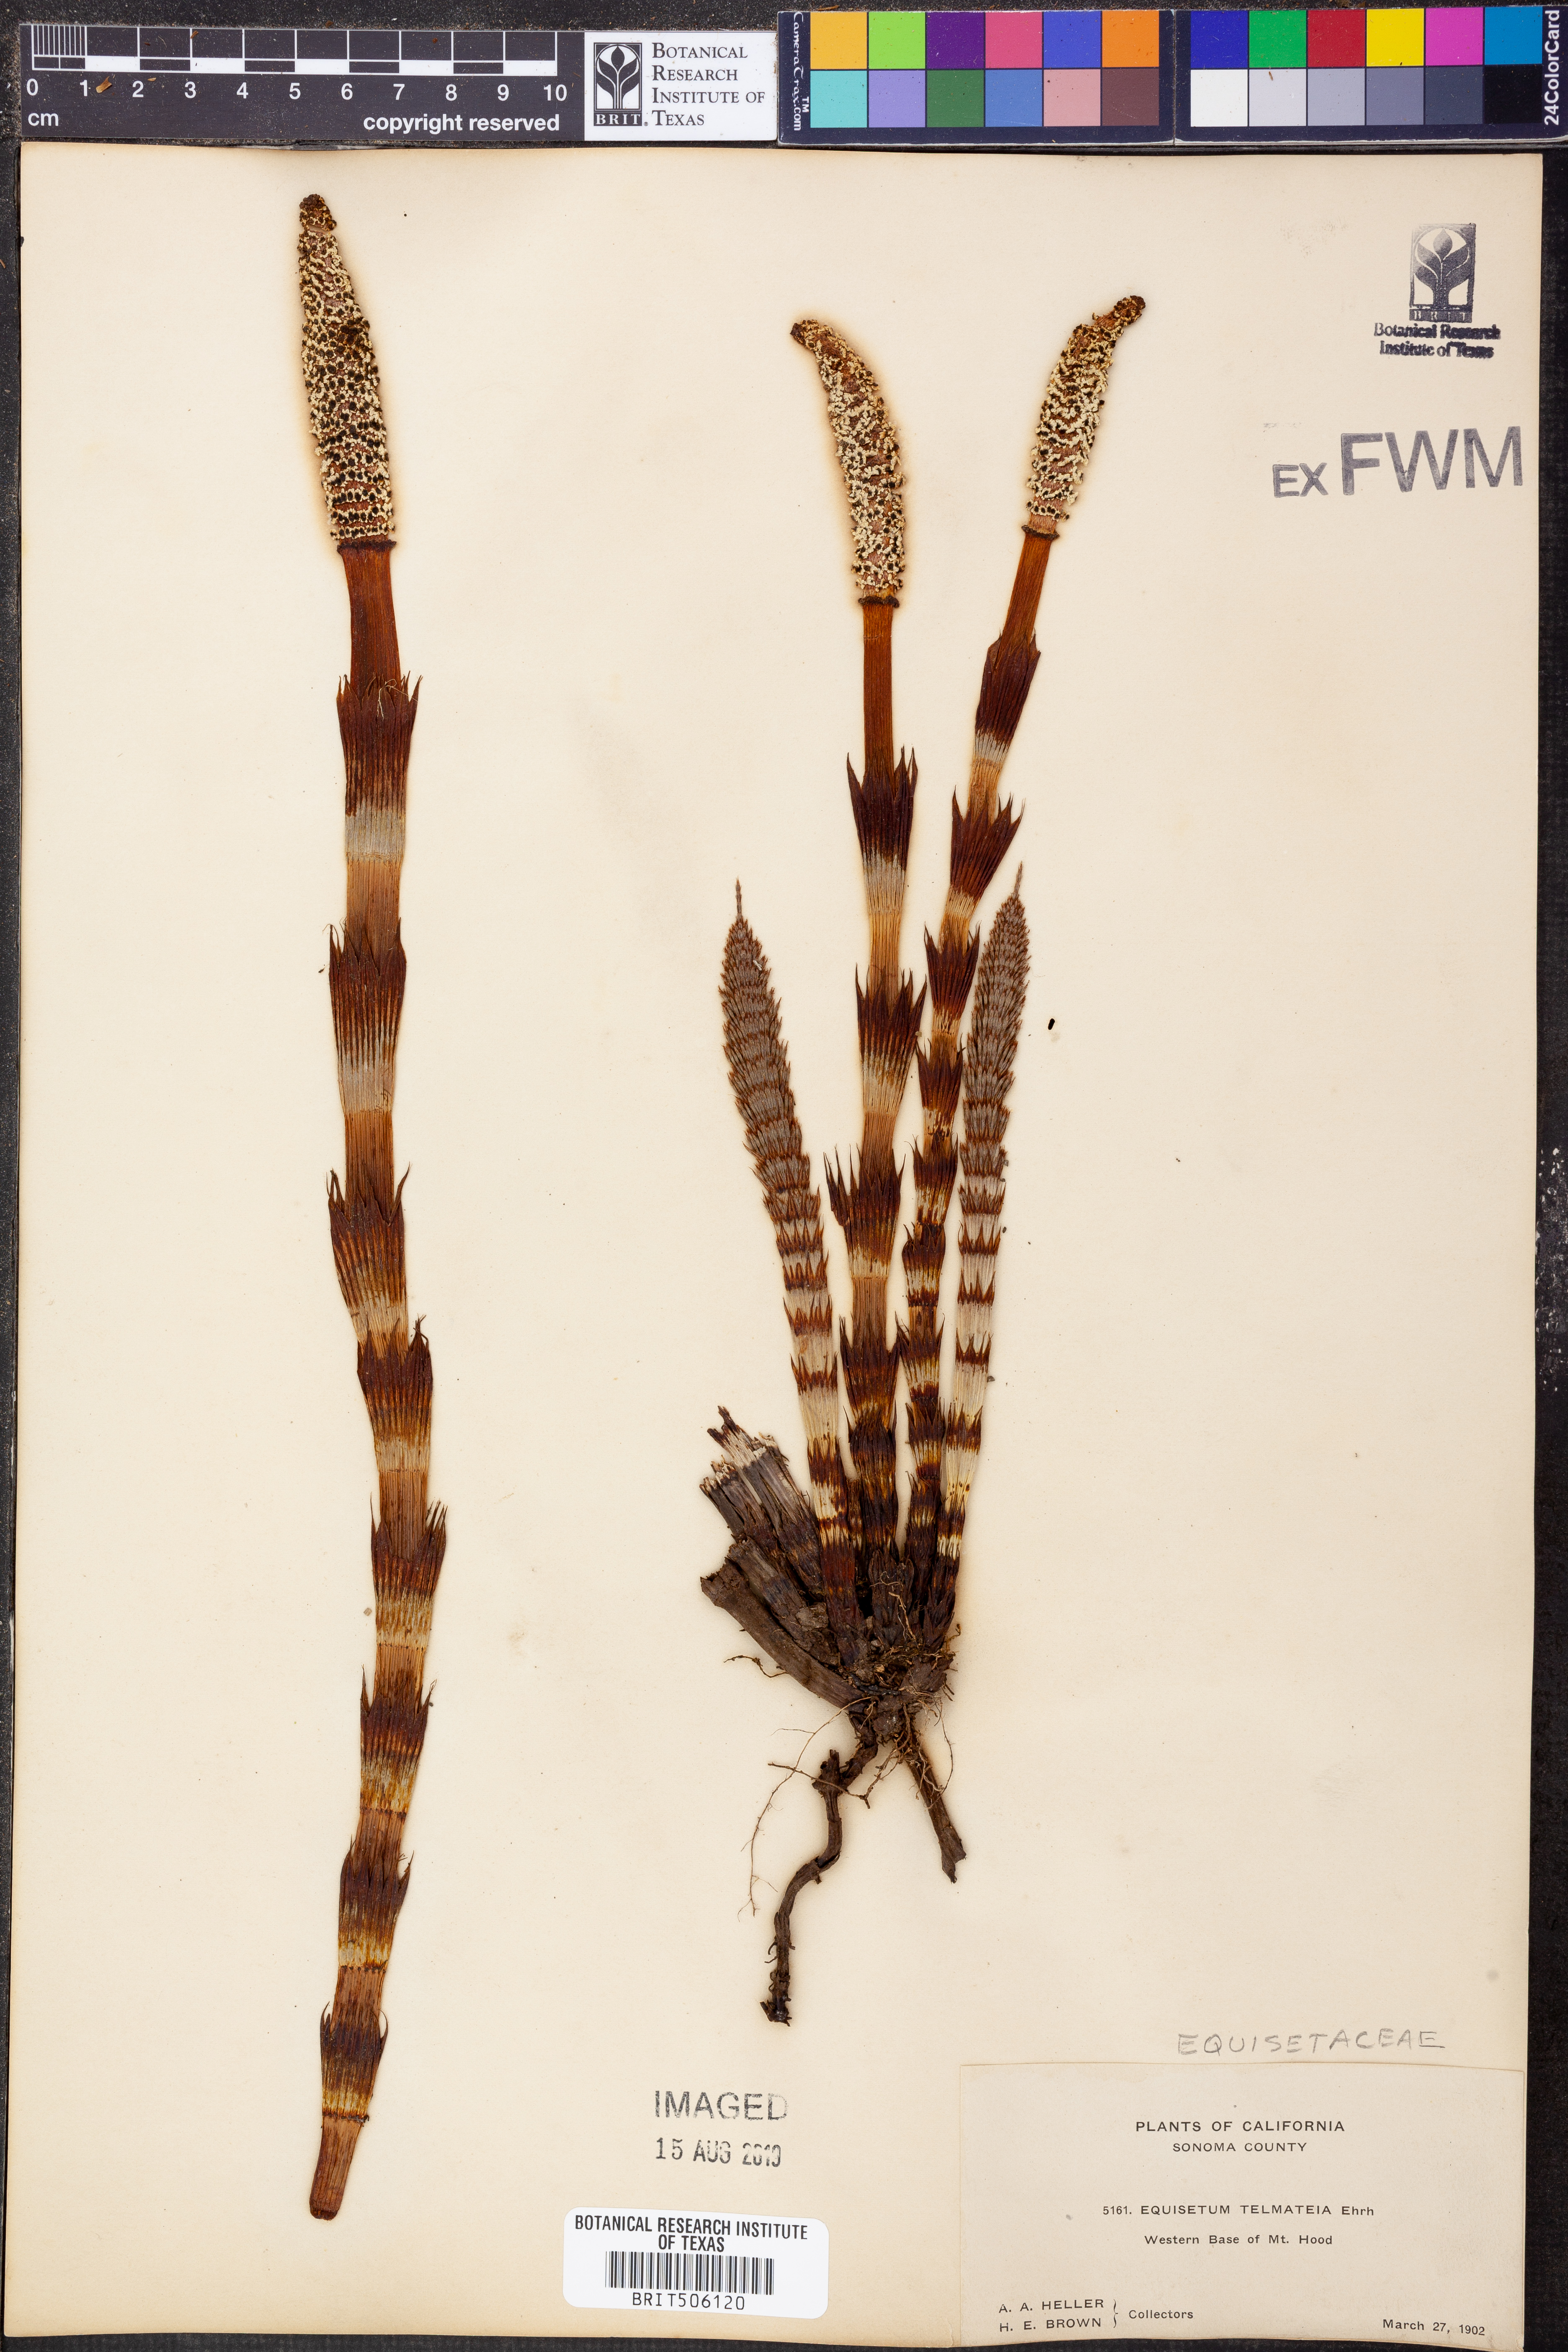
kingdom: Plantae
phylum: Tracheophyta
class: Polypodiopsida
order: Equisetales
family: Equisetaceae
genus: Equisetum
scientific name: Equisetum telmateia
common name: Great horsetail
